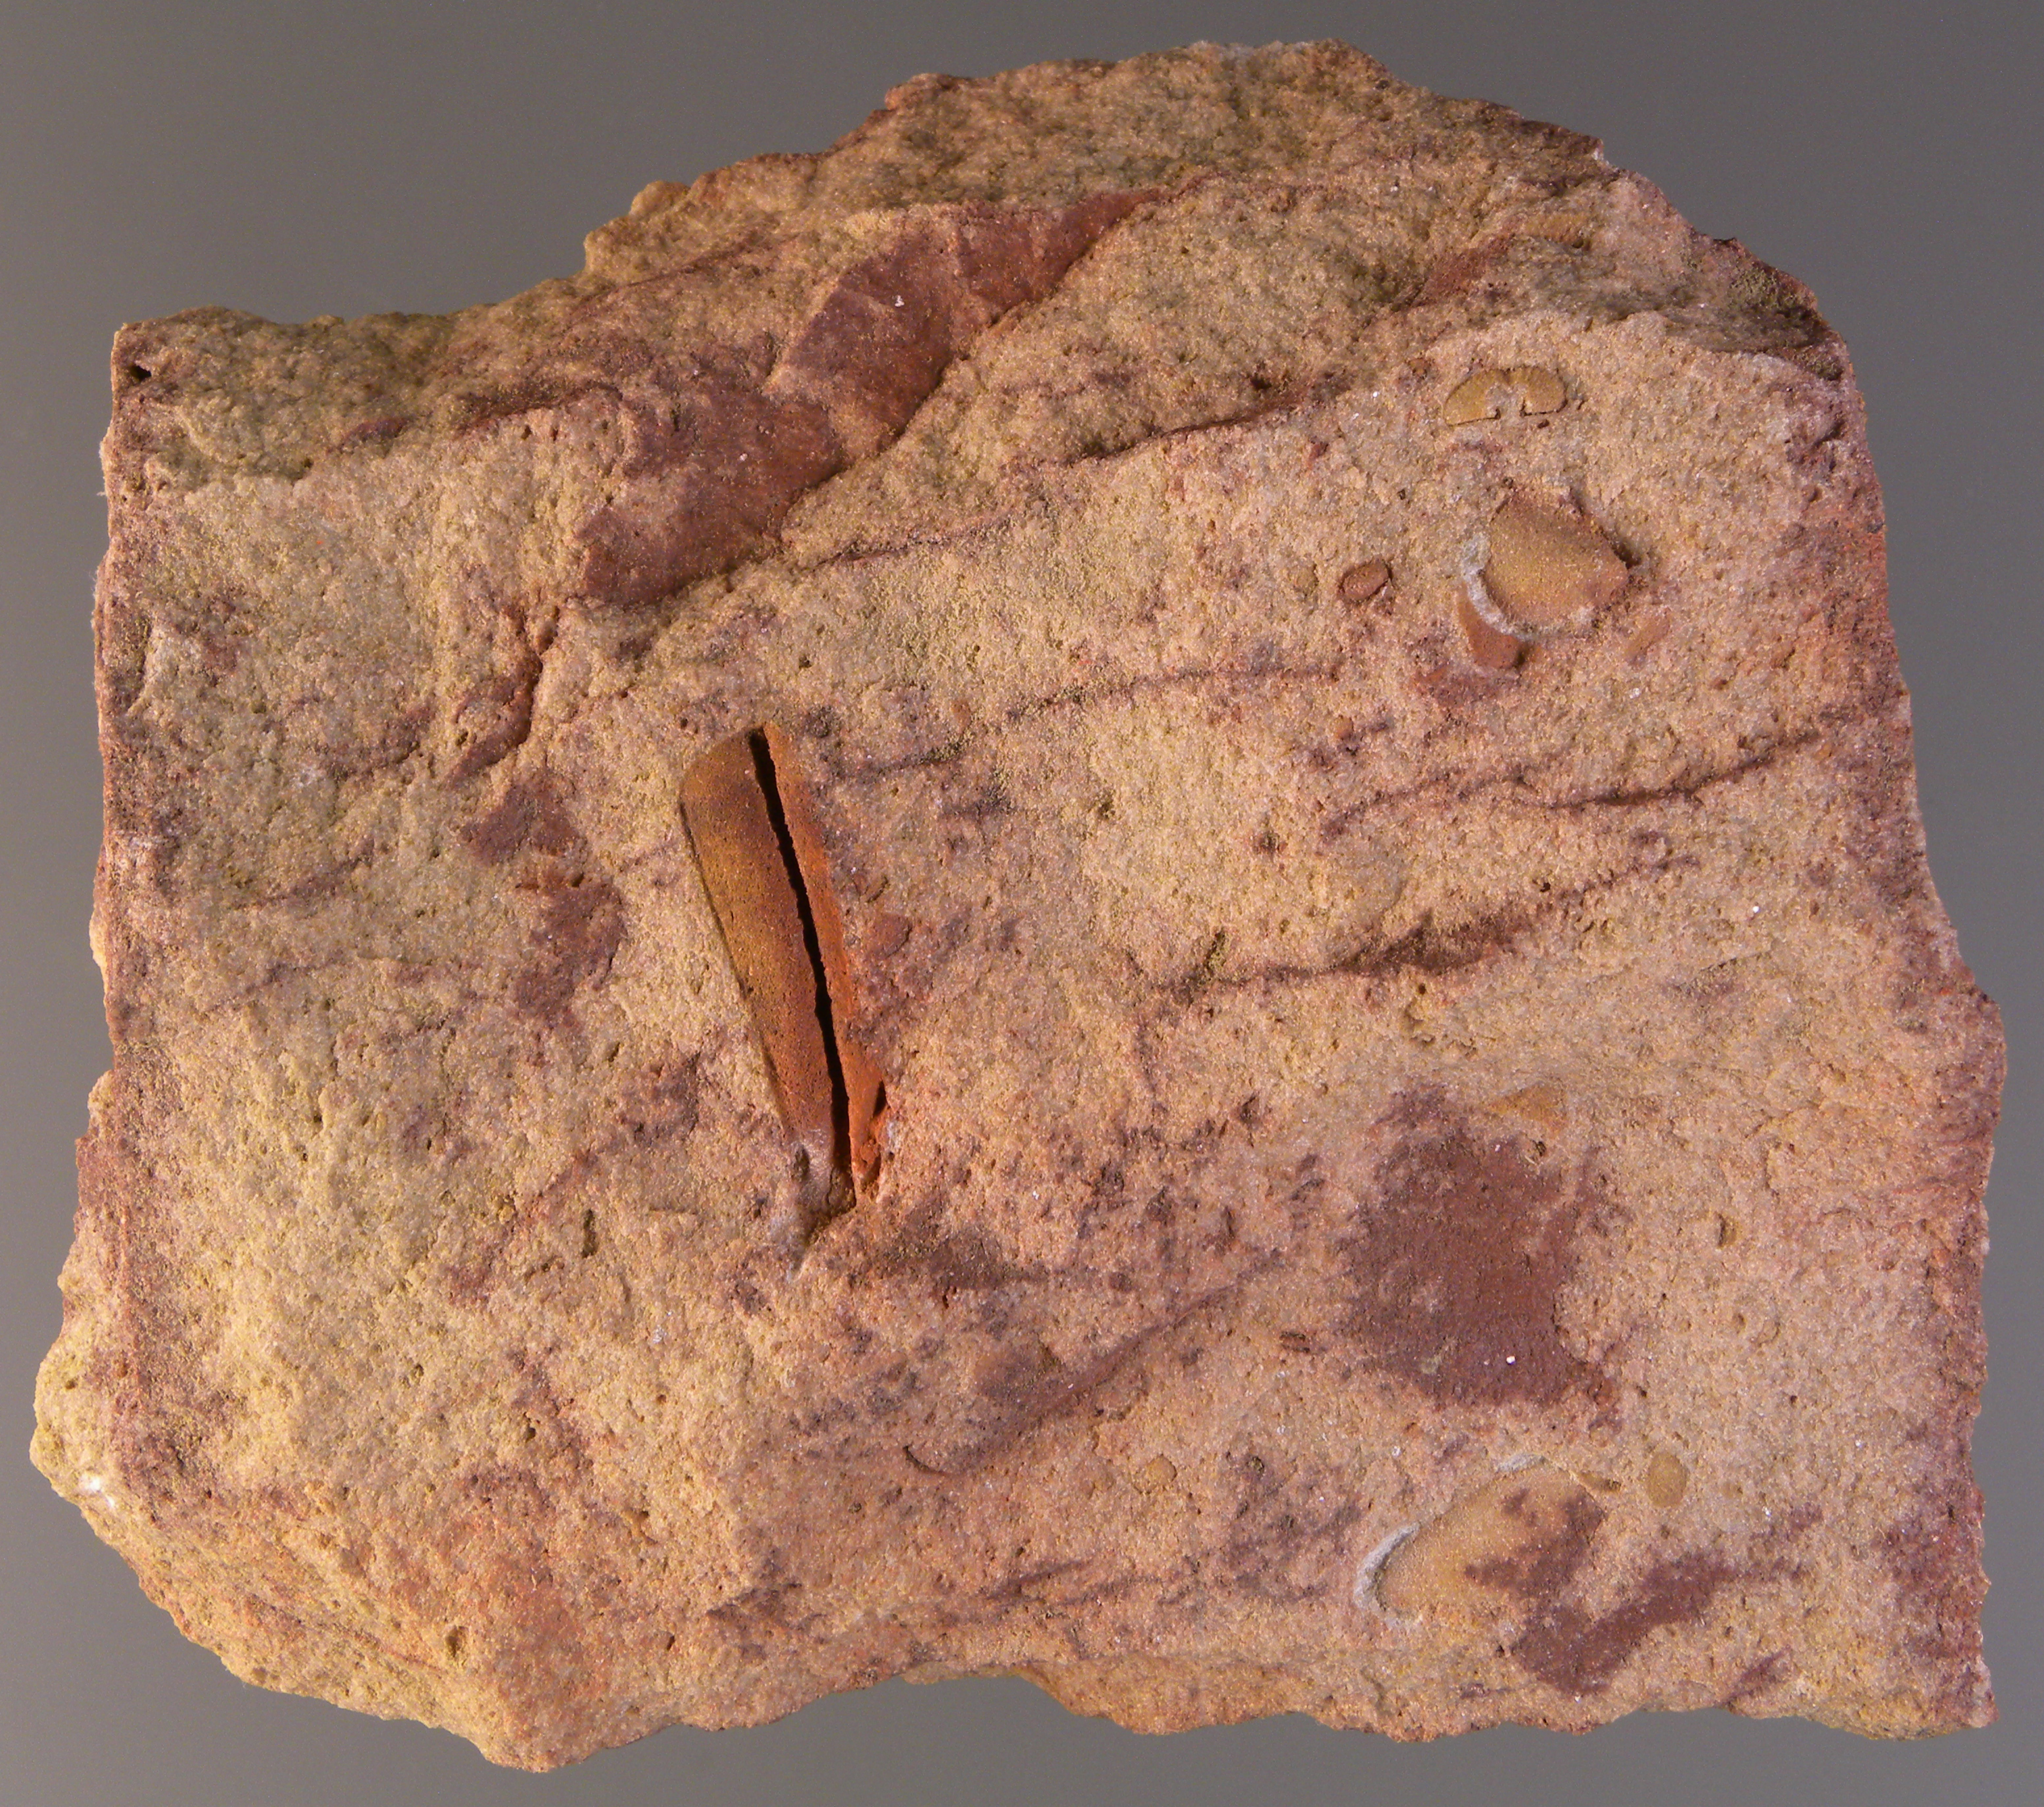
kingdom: Animalia
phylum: Arthropoda
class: Trilobita
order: Phacopida
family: Homalonotidae
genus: Digonus
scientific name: Digonus
